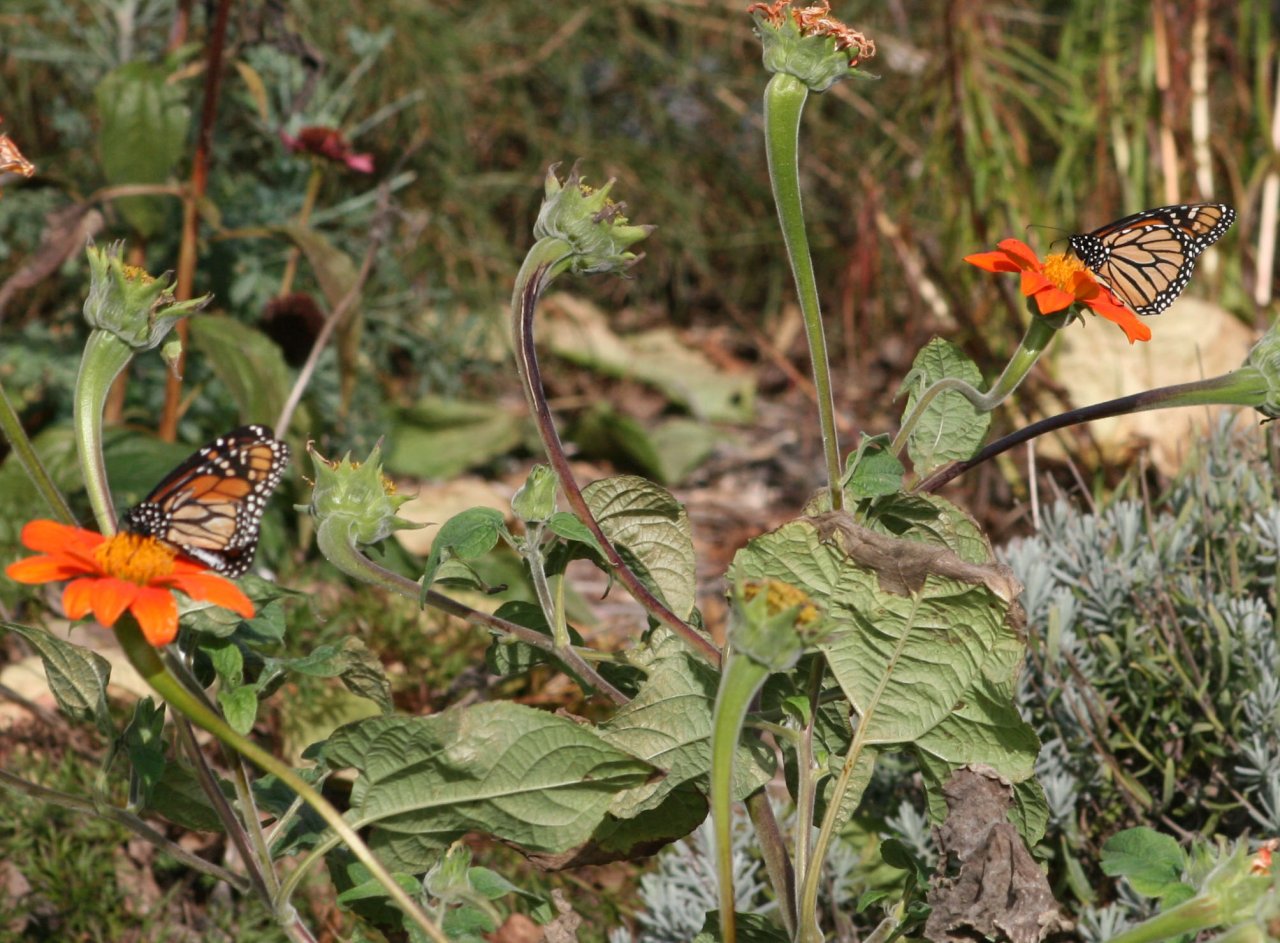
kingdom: Animalia
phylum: Arthropoda
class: Insecta
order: Lepidoptera
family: Nymphalidae
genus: Danaus
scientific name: Danaus plexippus
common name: Monarch
